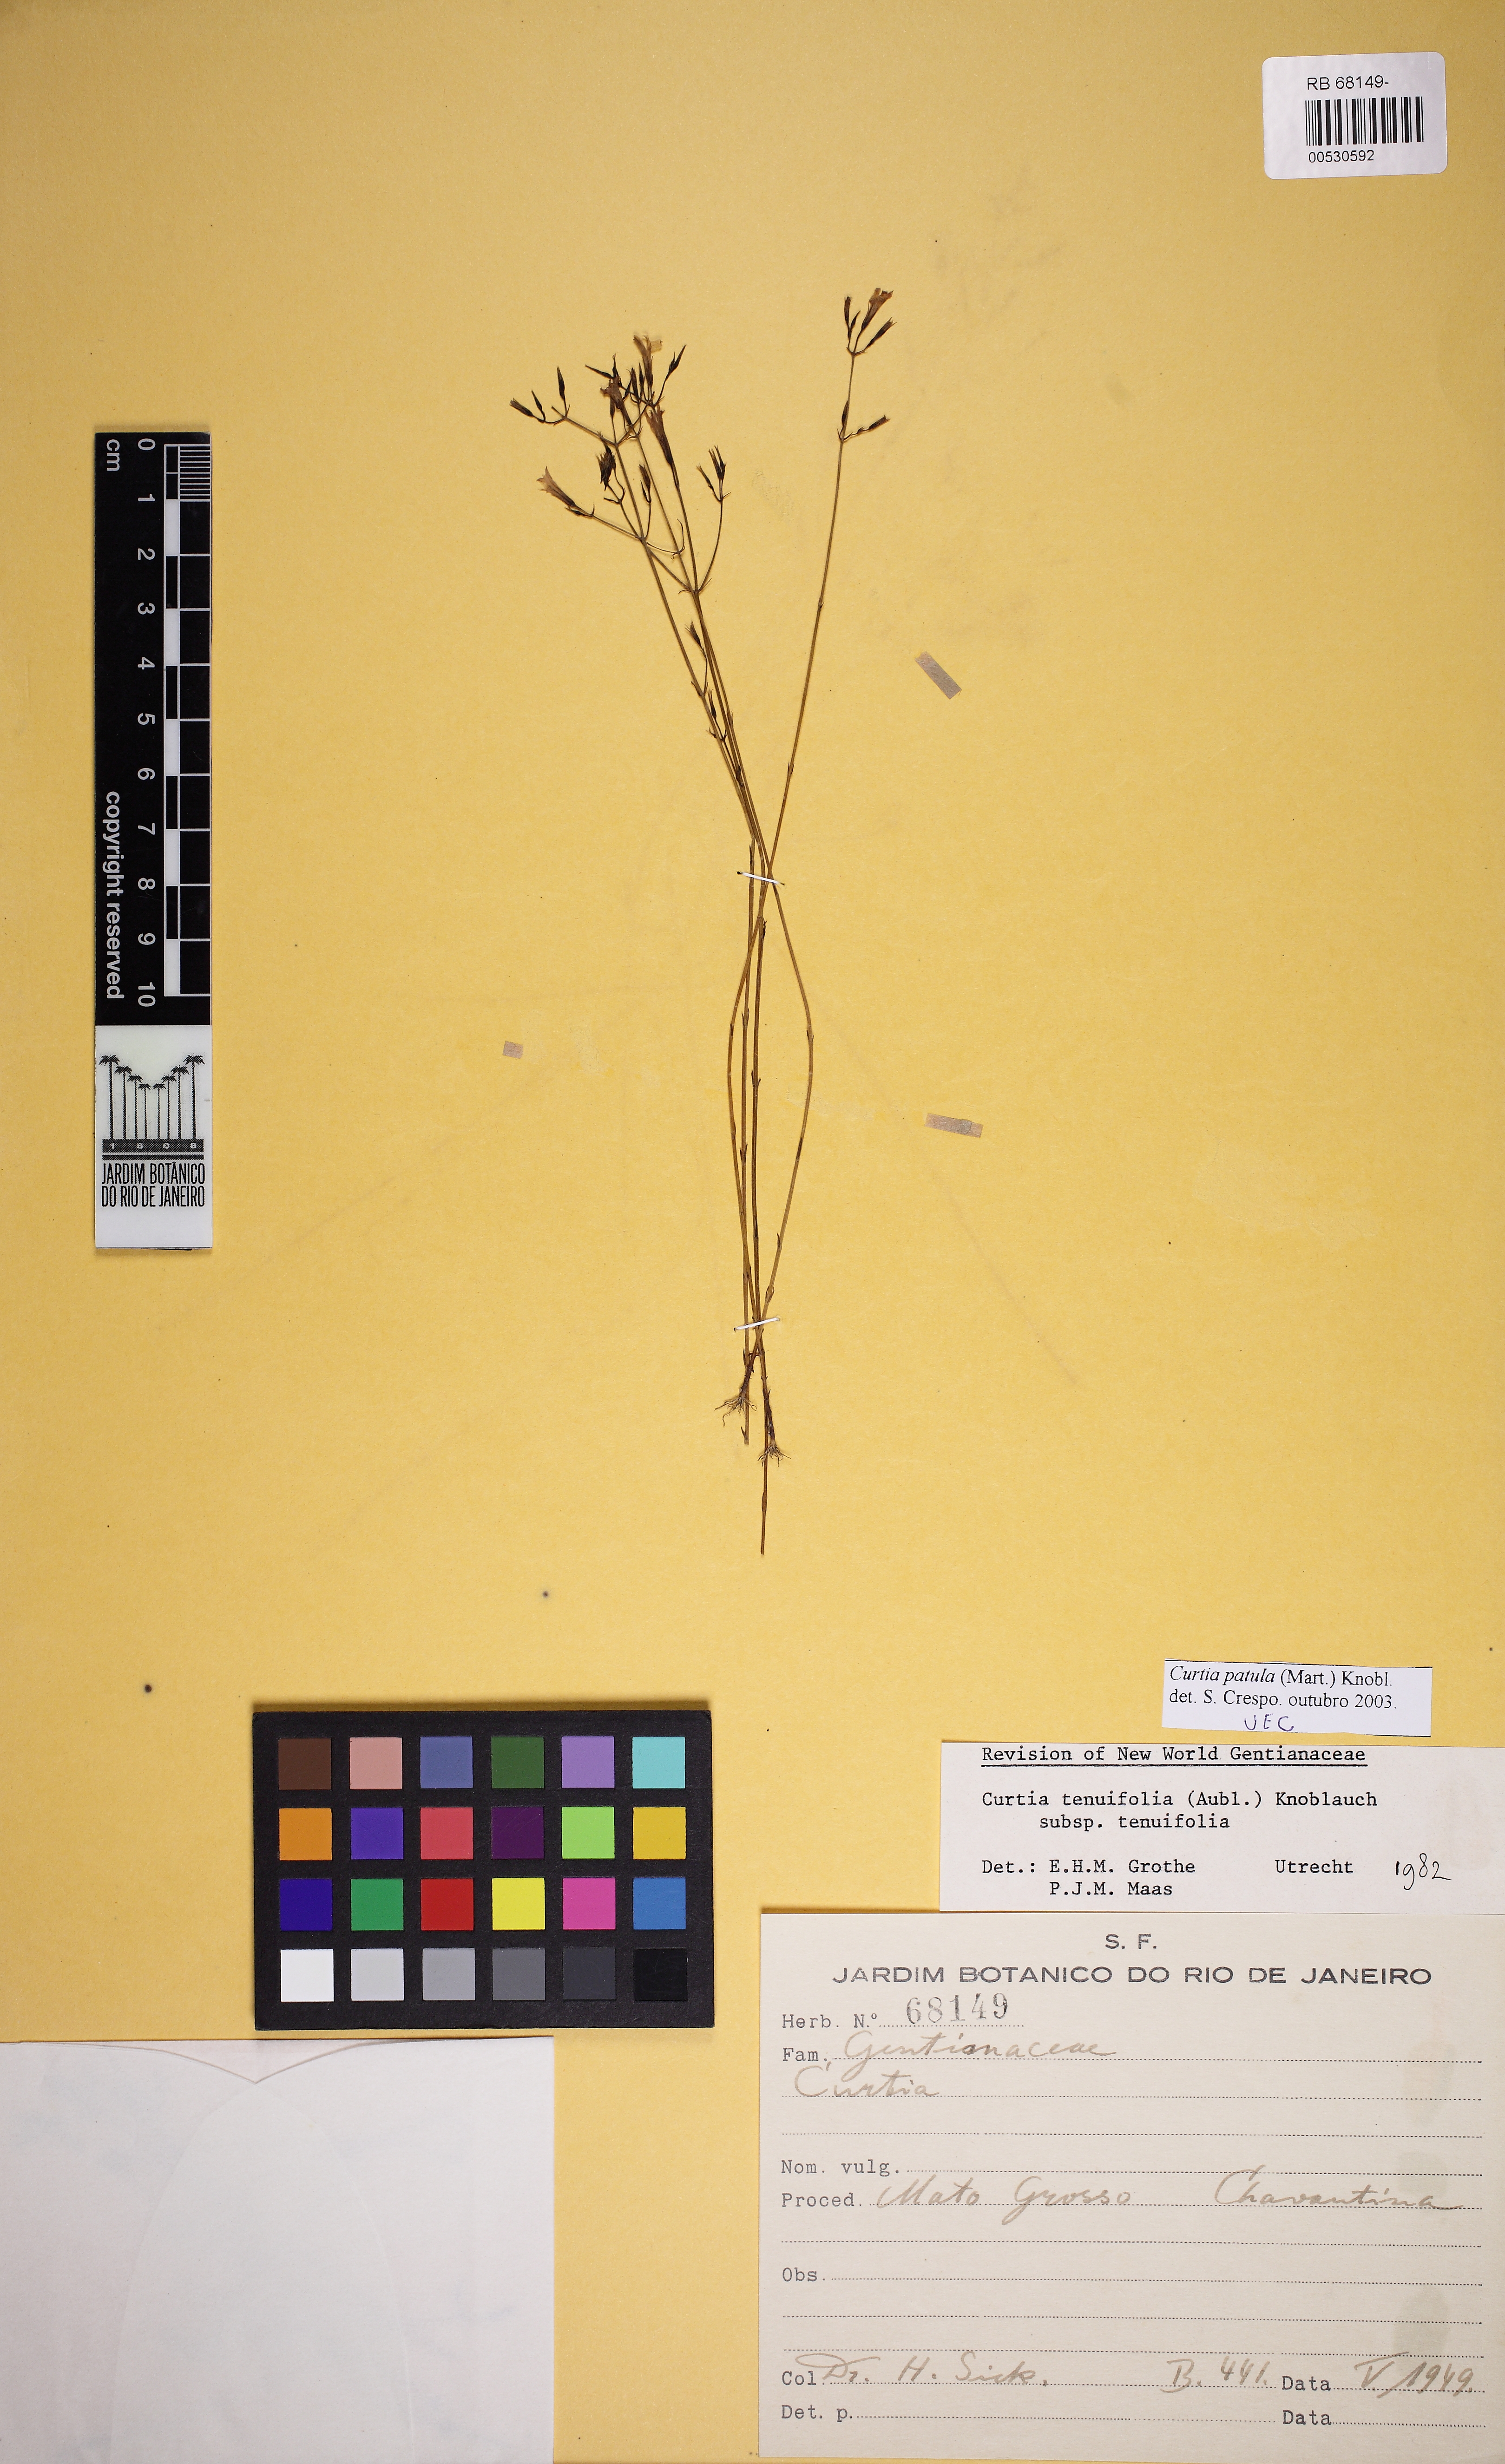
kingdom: Plantae
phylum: Tracheophyta
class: Magnoliopsida
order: Gentianales
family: Gentianaceae
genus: Curtia
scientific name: Curtia tenuifolia
